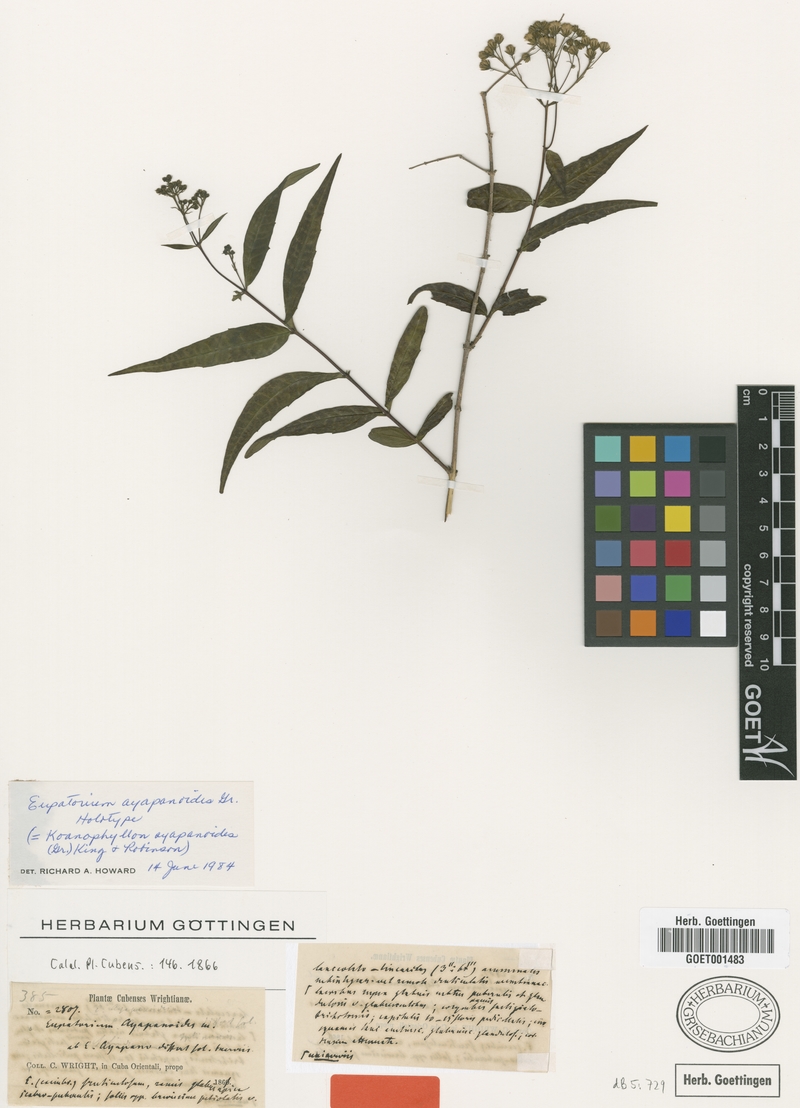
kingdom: Plantae
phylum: Tracheophyta
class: Magnoliopsida
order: Asterales
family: Asteraceae
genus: Koanophyllon
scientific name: Koanophyllon ayapanoides
